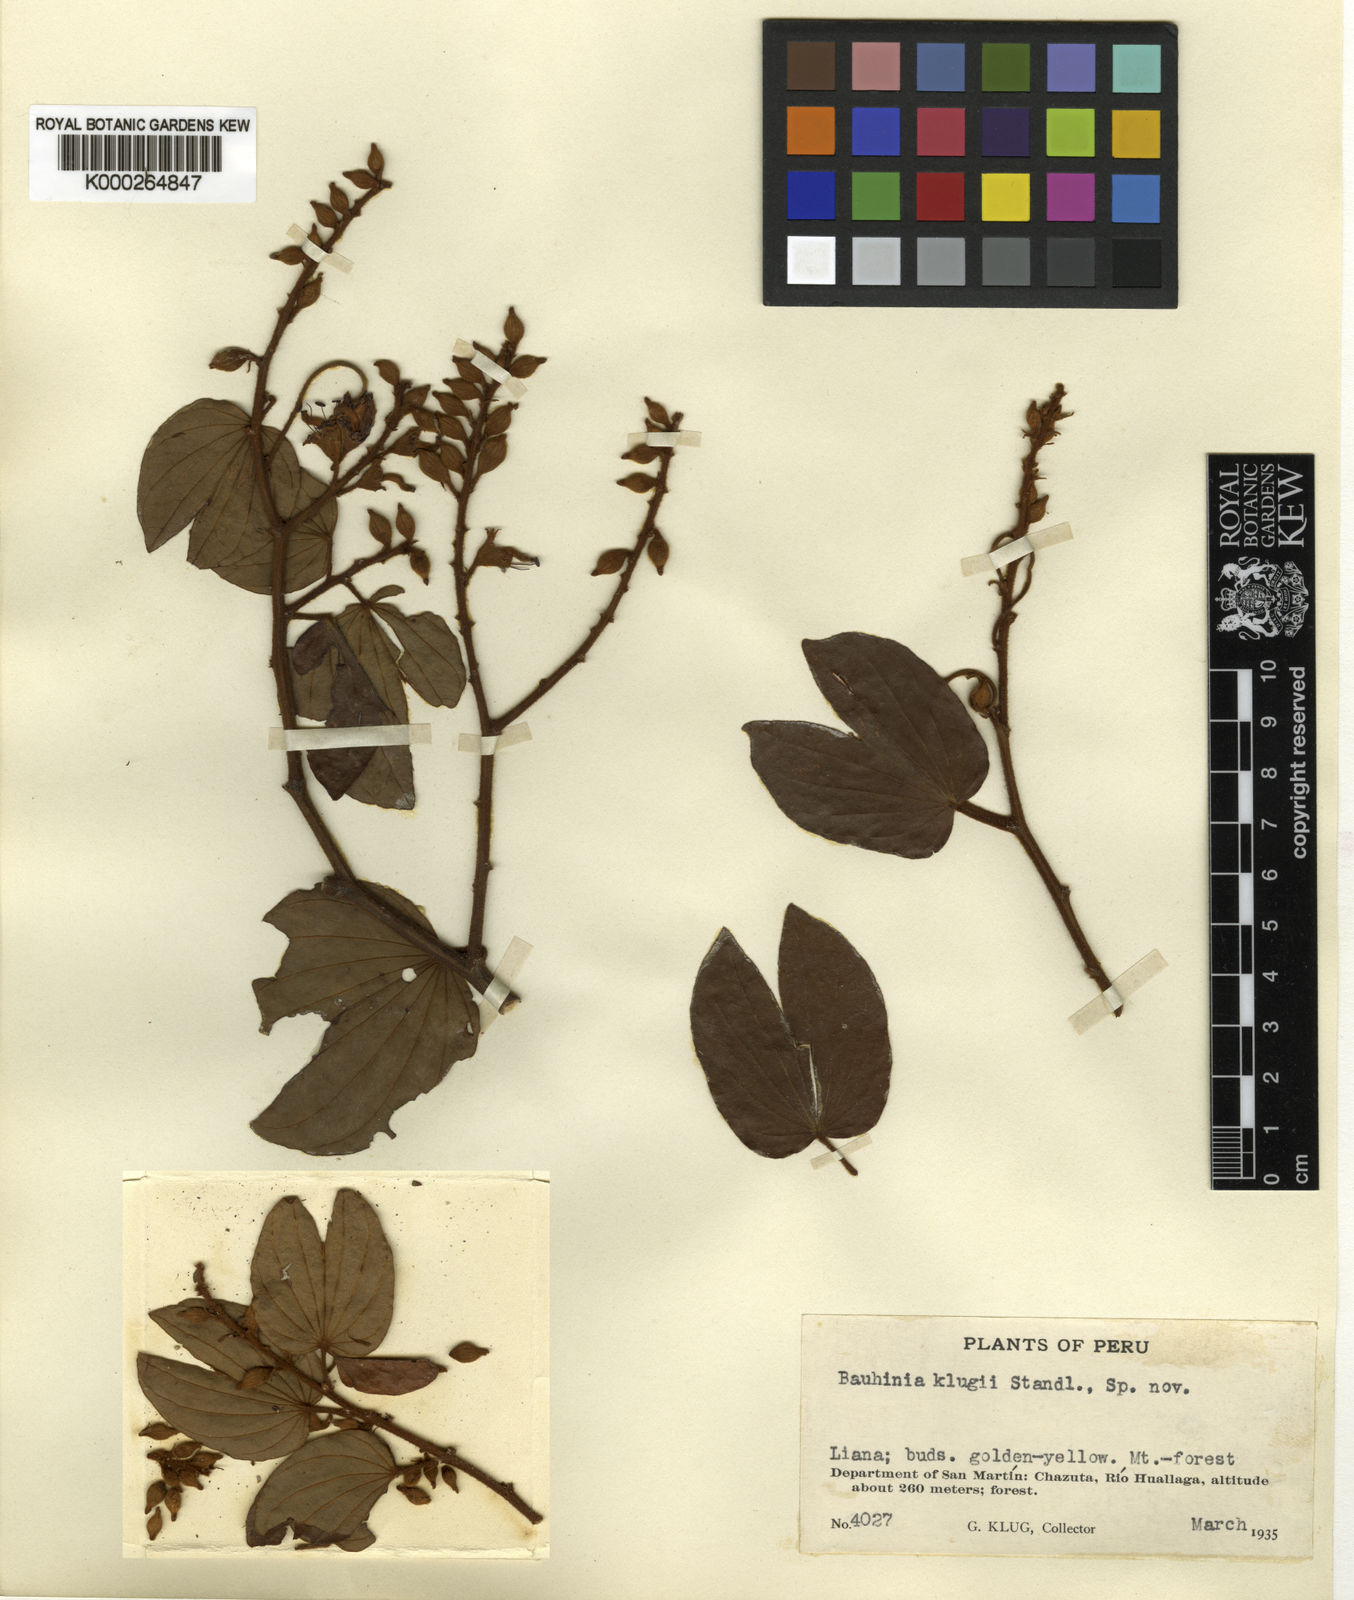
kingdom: Plantae
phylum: Tracheophyta
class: Magnoliopsida
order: Fabales
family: Fabaceae
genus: Schnella
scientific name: Schnella klugii
